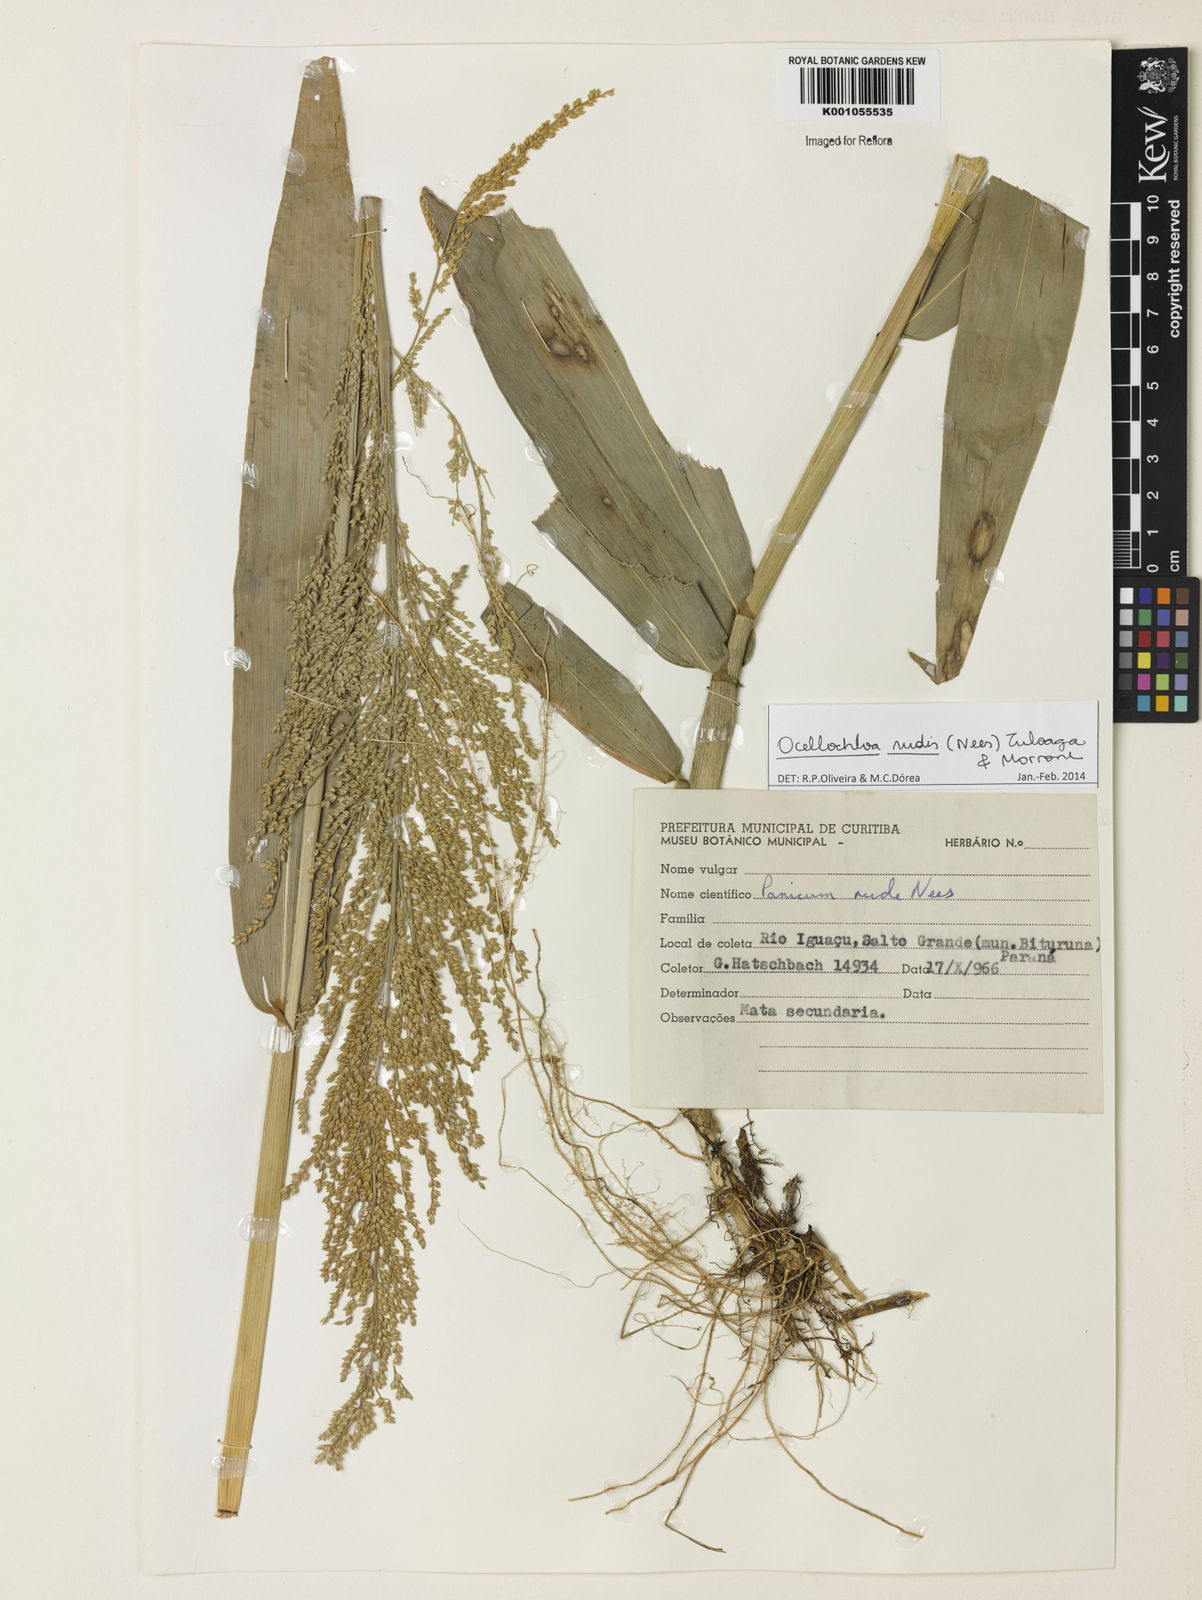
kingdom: Plantae
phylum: Tracheophyta
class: Liliopsida
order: Poales
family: Poaceae
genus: Ocellochloa
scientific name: Ocellochloa rudis
